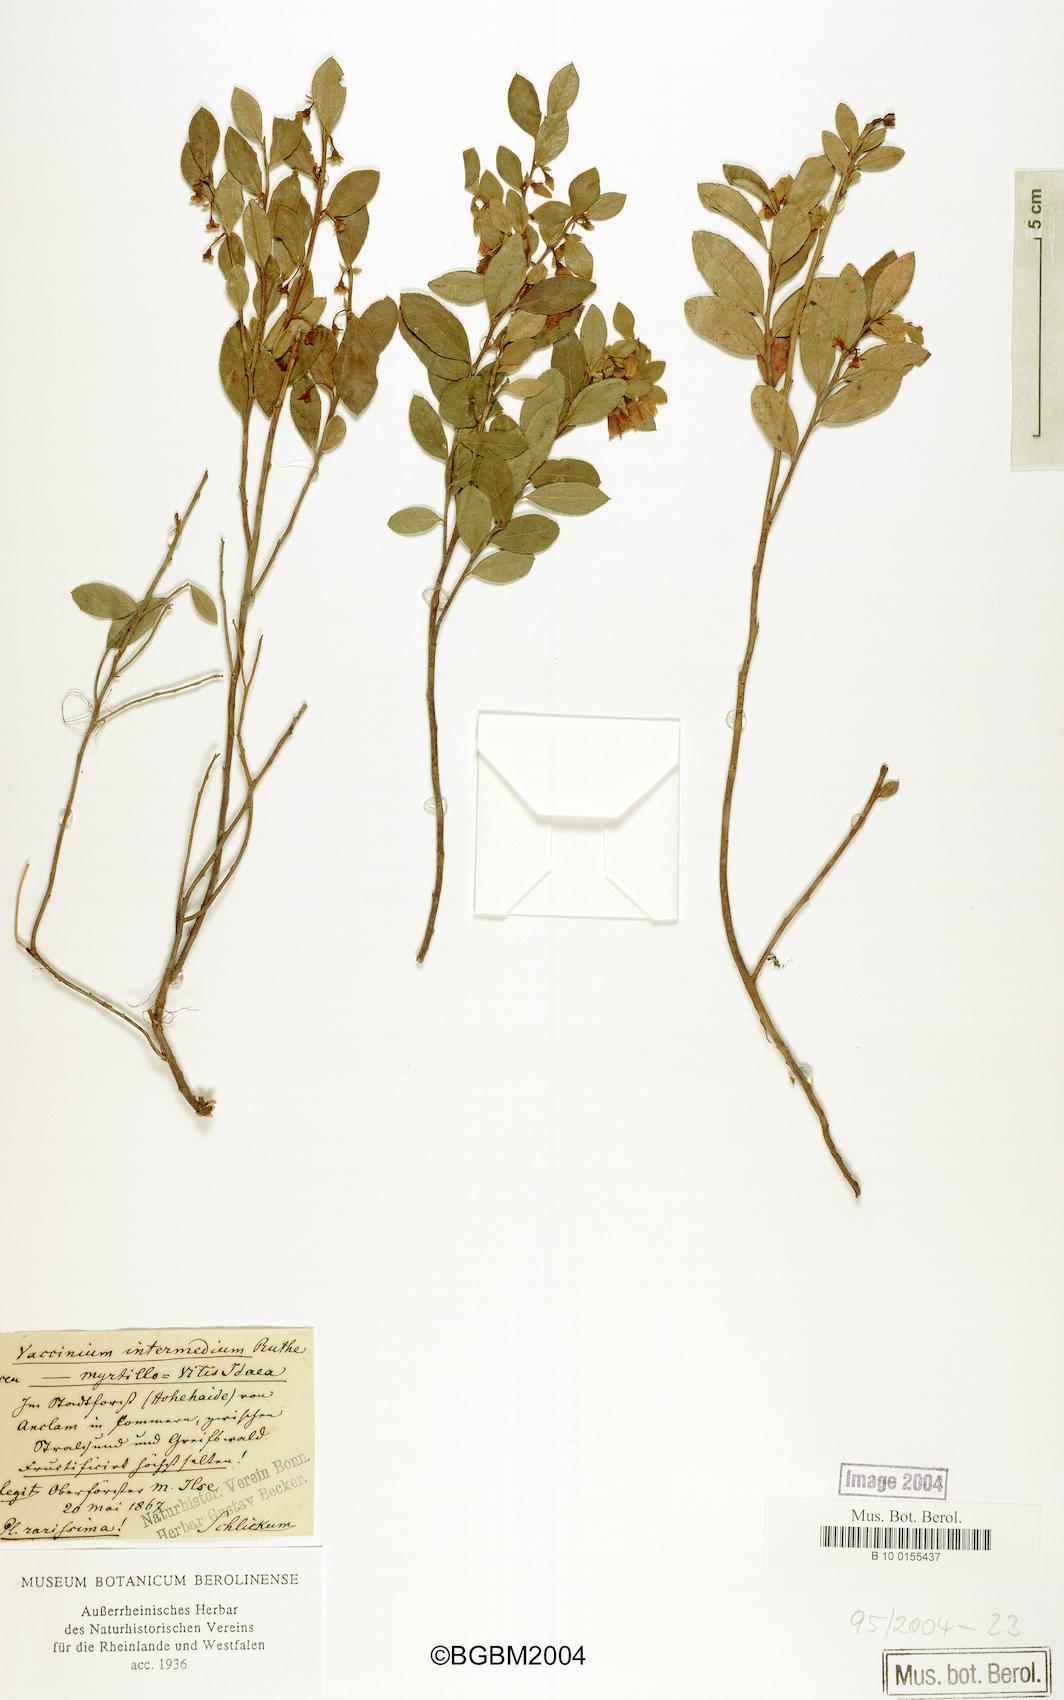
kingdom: Plantae
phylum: Tracheophyta
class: Magnoliopsida
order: Ericales
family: Ericaceae
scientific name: Ericaceae
